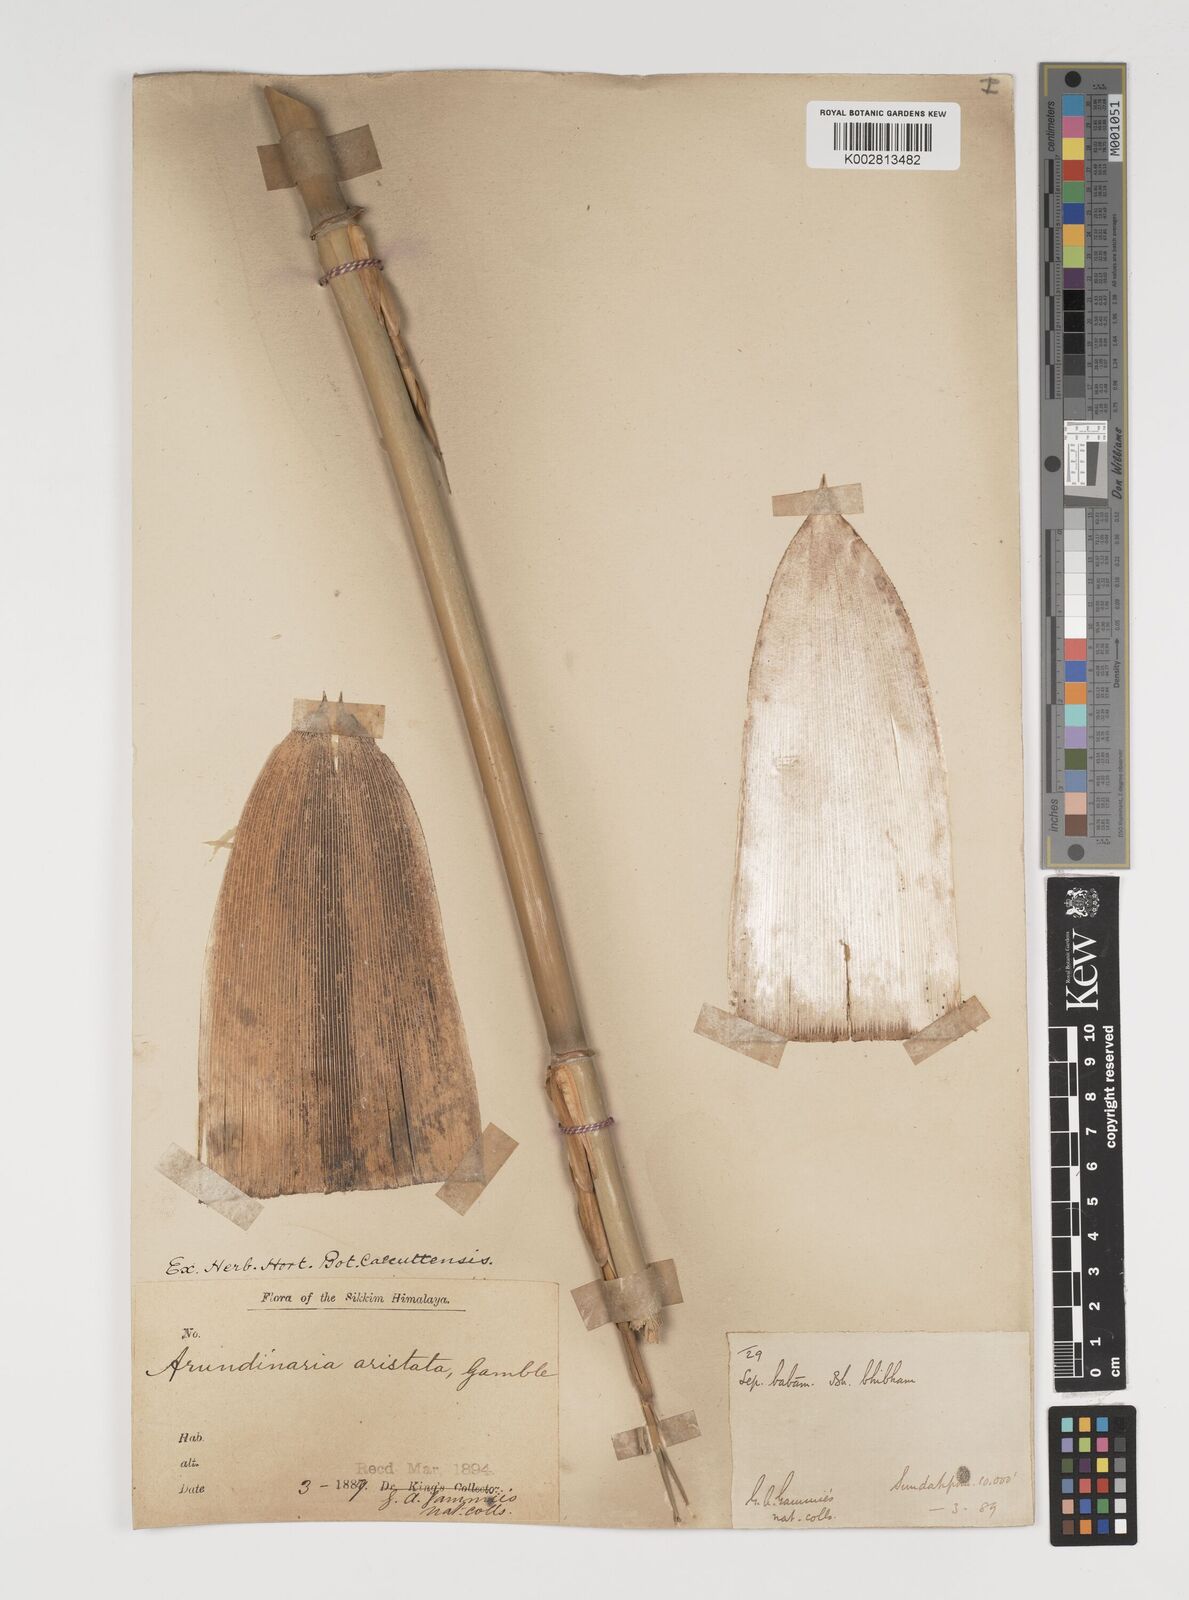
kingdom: Plantae
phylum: Tracheophyta
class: Liliopsida
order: Poales
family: Poaceae
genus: Thamnocalamus
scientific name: Thamnocalamus spathiflorus
